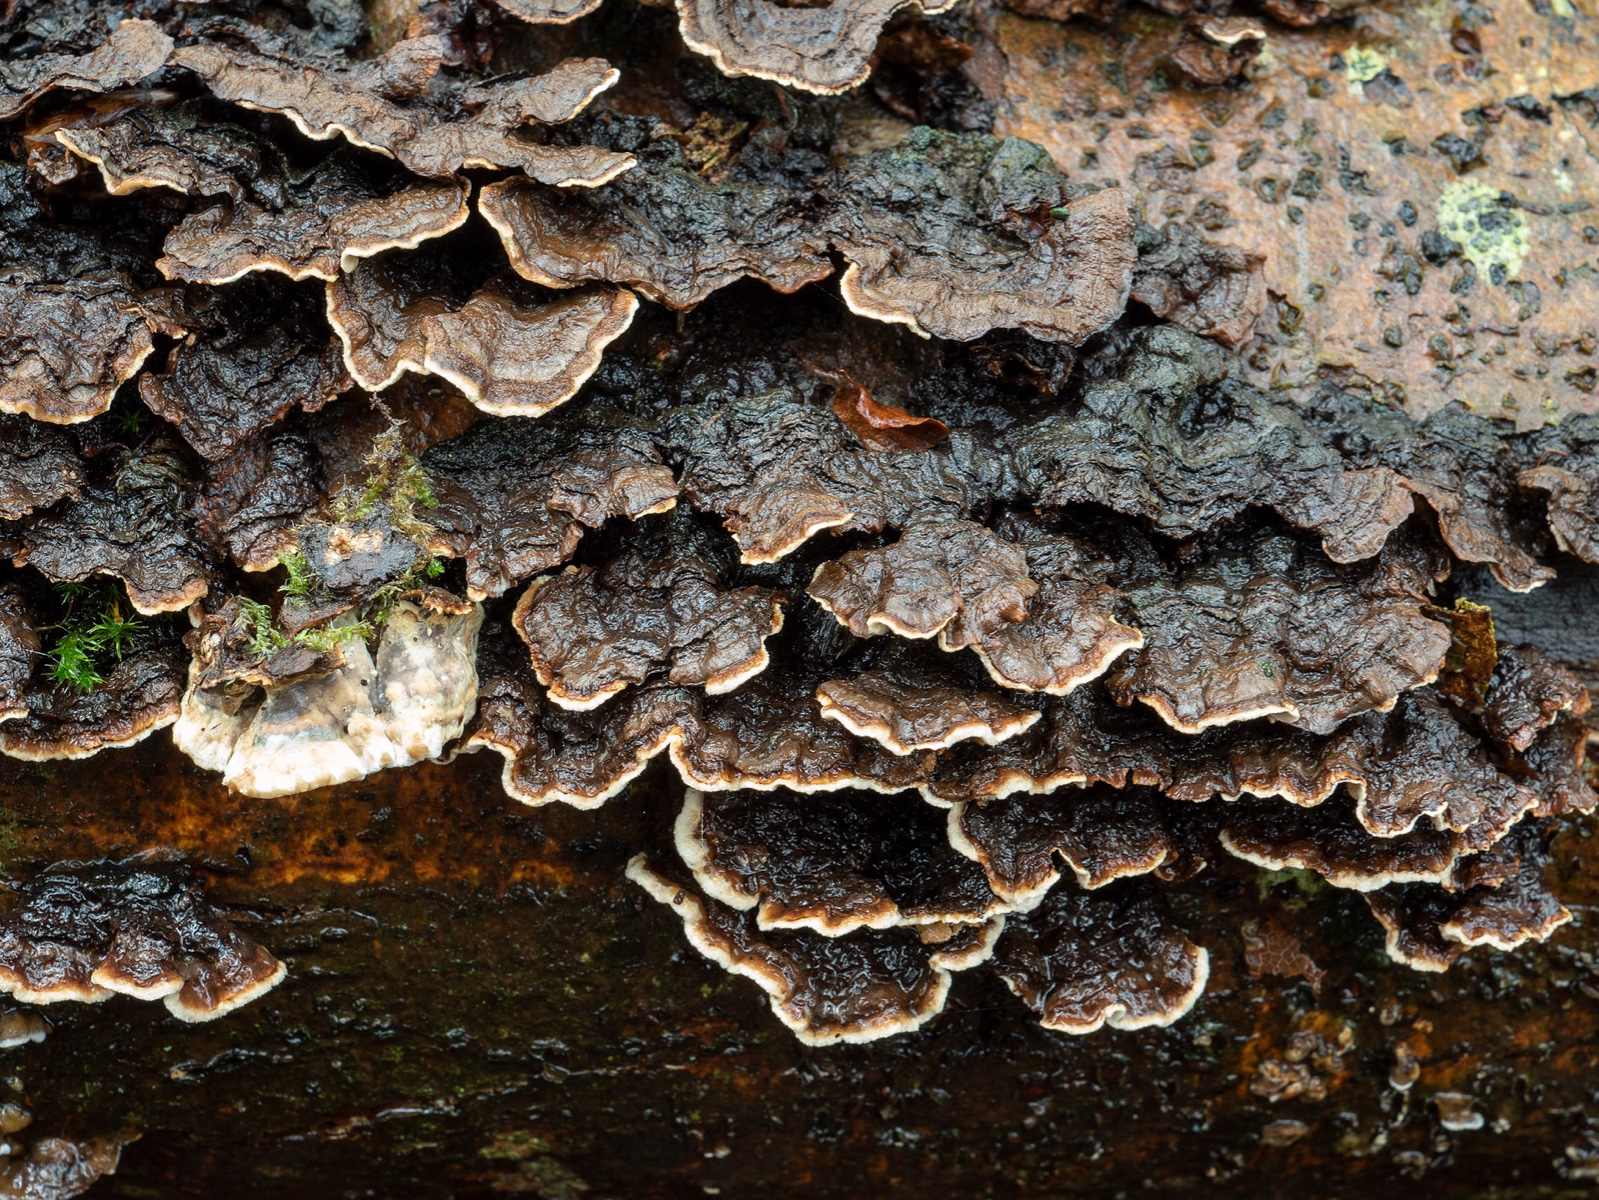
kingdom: Fungi
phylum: Basidiomycota
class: Agaricomycetes
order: Russulales
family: Hericiaceae
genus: Laxitextum
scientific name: Laxitextum bicolor
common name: tvefarvet filtskind
